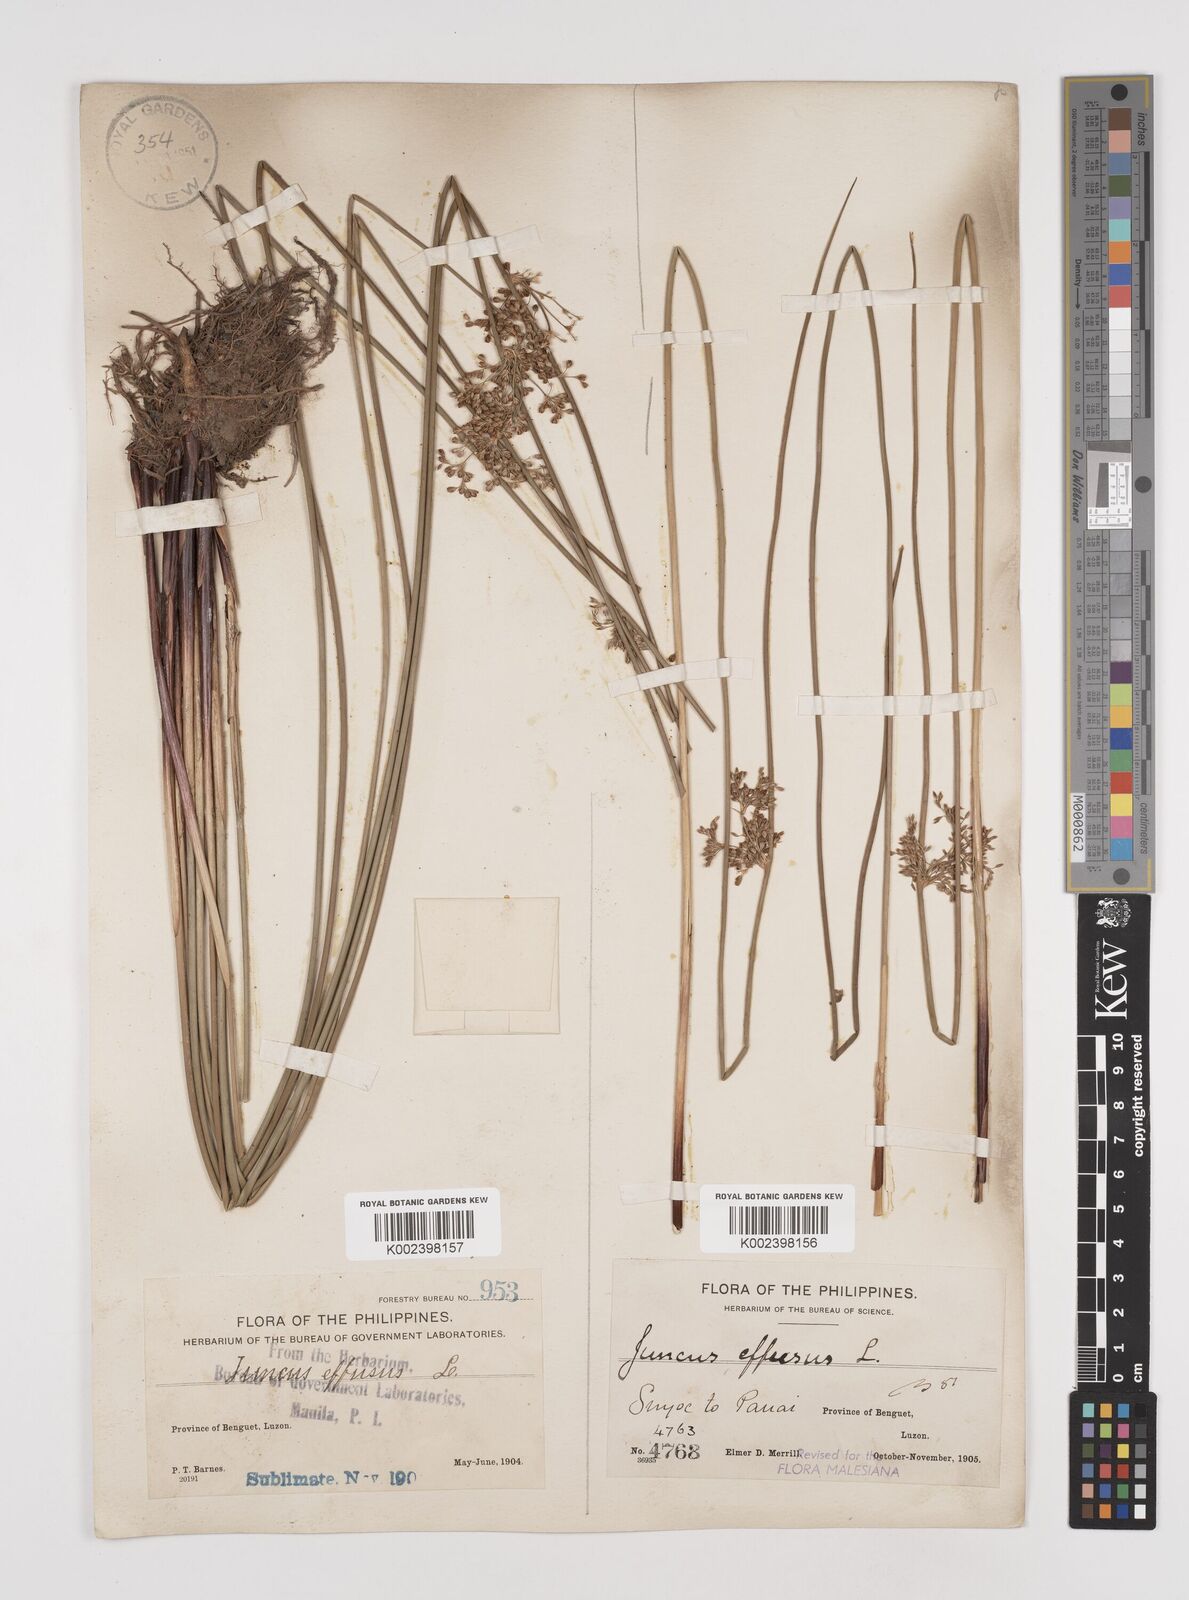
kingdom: Plantae
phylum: Tracheophyta
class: Liliopsida
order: Poales
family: Juncaceae
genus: Juncus
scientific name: Juncus decipiens
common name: Lamp rush
